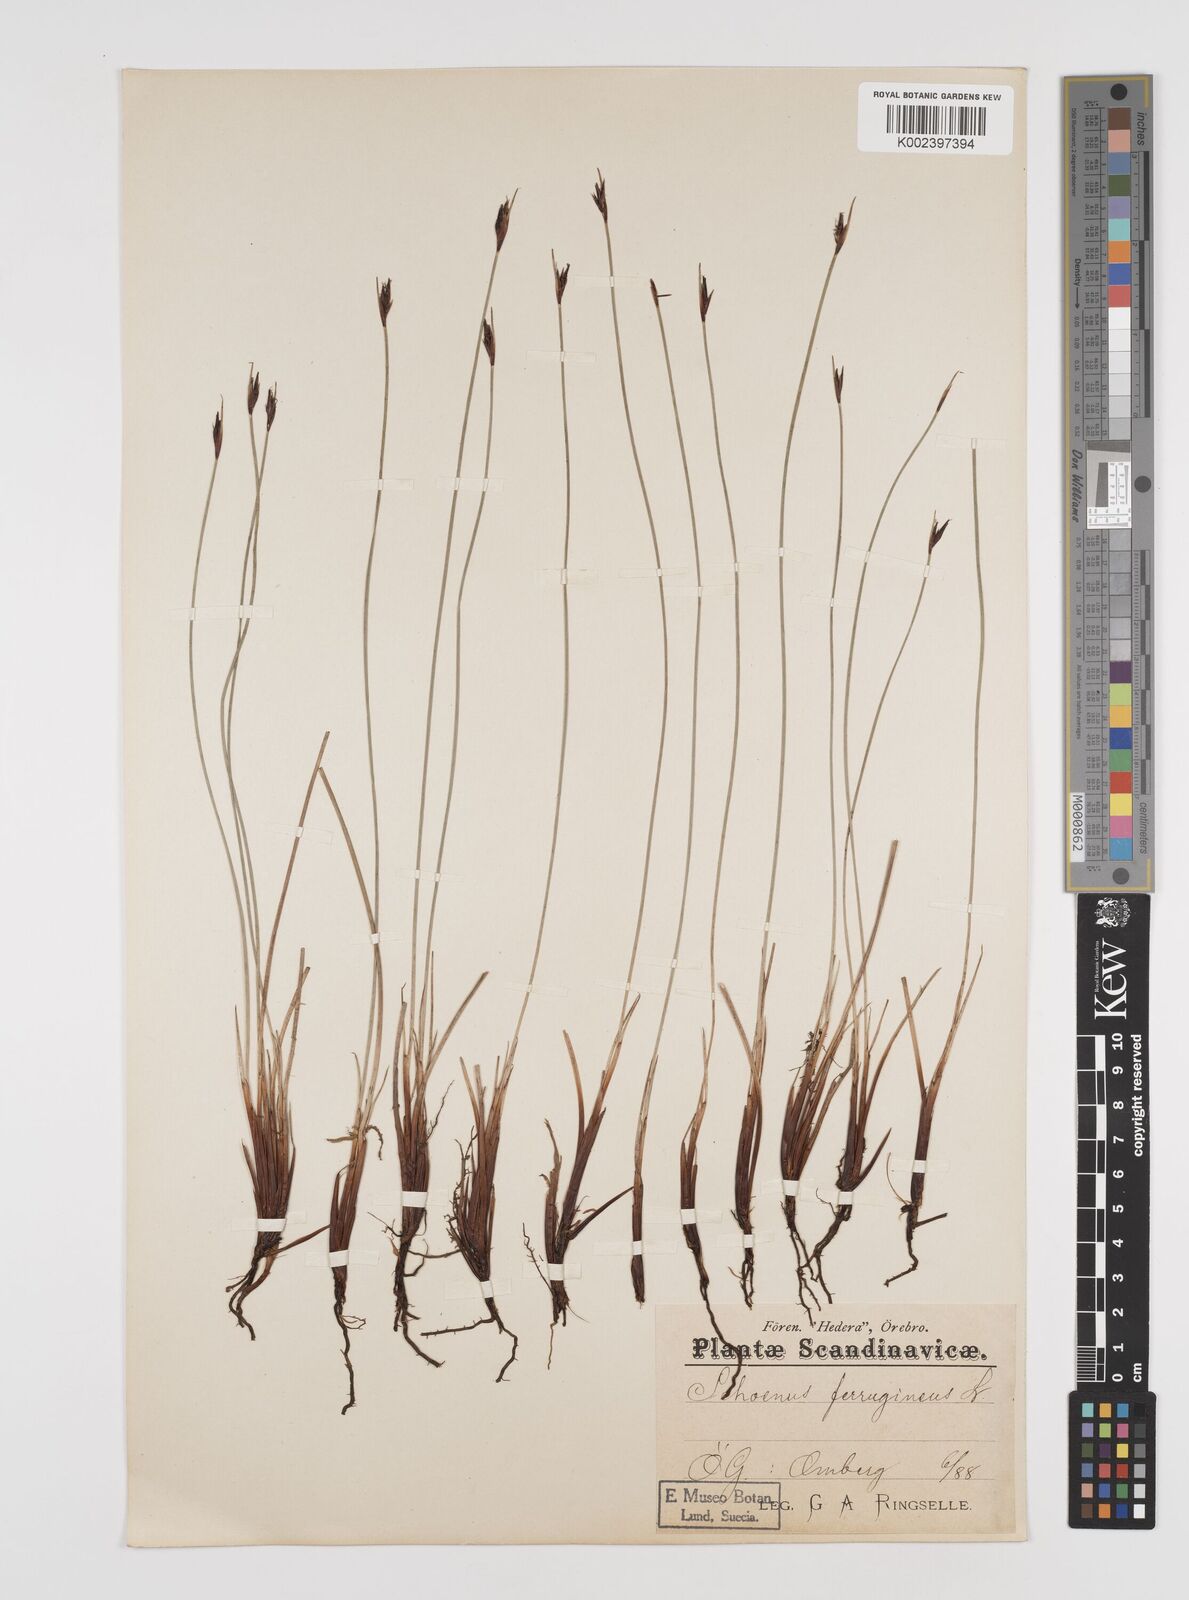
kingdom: Plantae
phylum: Tracheophyta
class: Liliopsida
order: Poales
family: Cyperaceae
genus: Schoenus
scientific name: Schoenus ferrugineus
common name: Brown bog-rush
